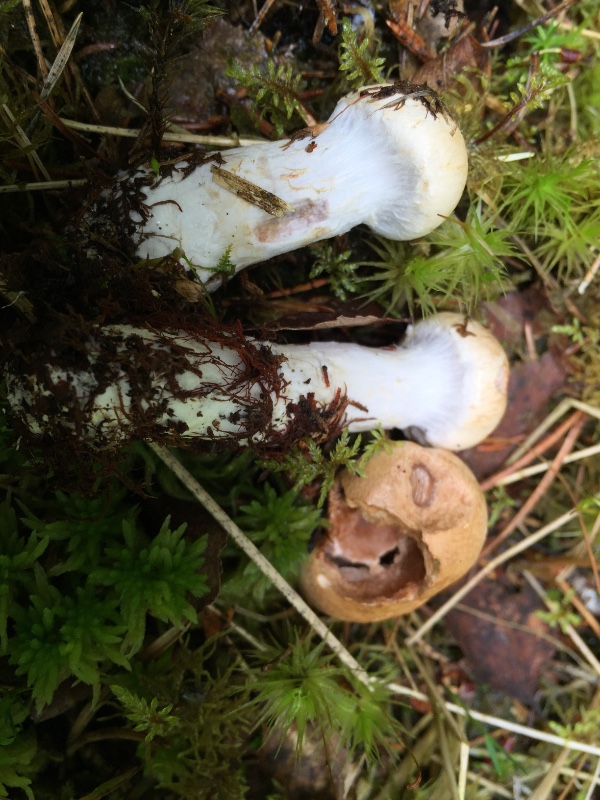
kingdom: Fungi
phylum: Basidiomycota
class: Agaricomycetes
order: Agaricales
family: Cortinariaceae
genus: Cortinarius
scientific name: Cortinarius caninus
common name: gran-slørhat
